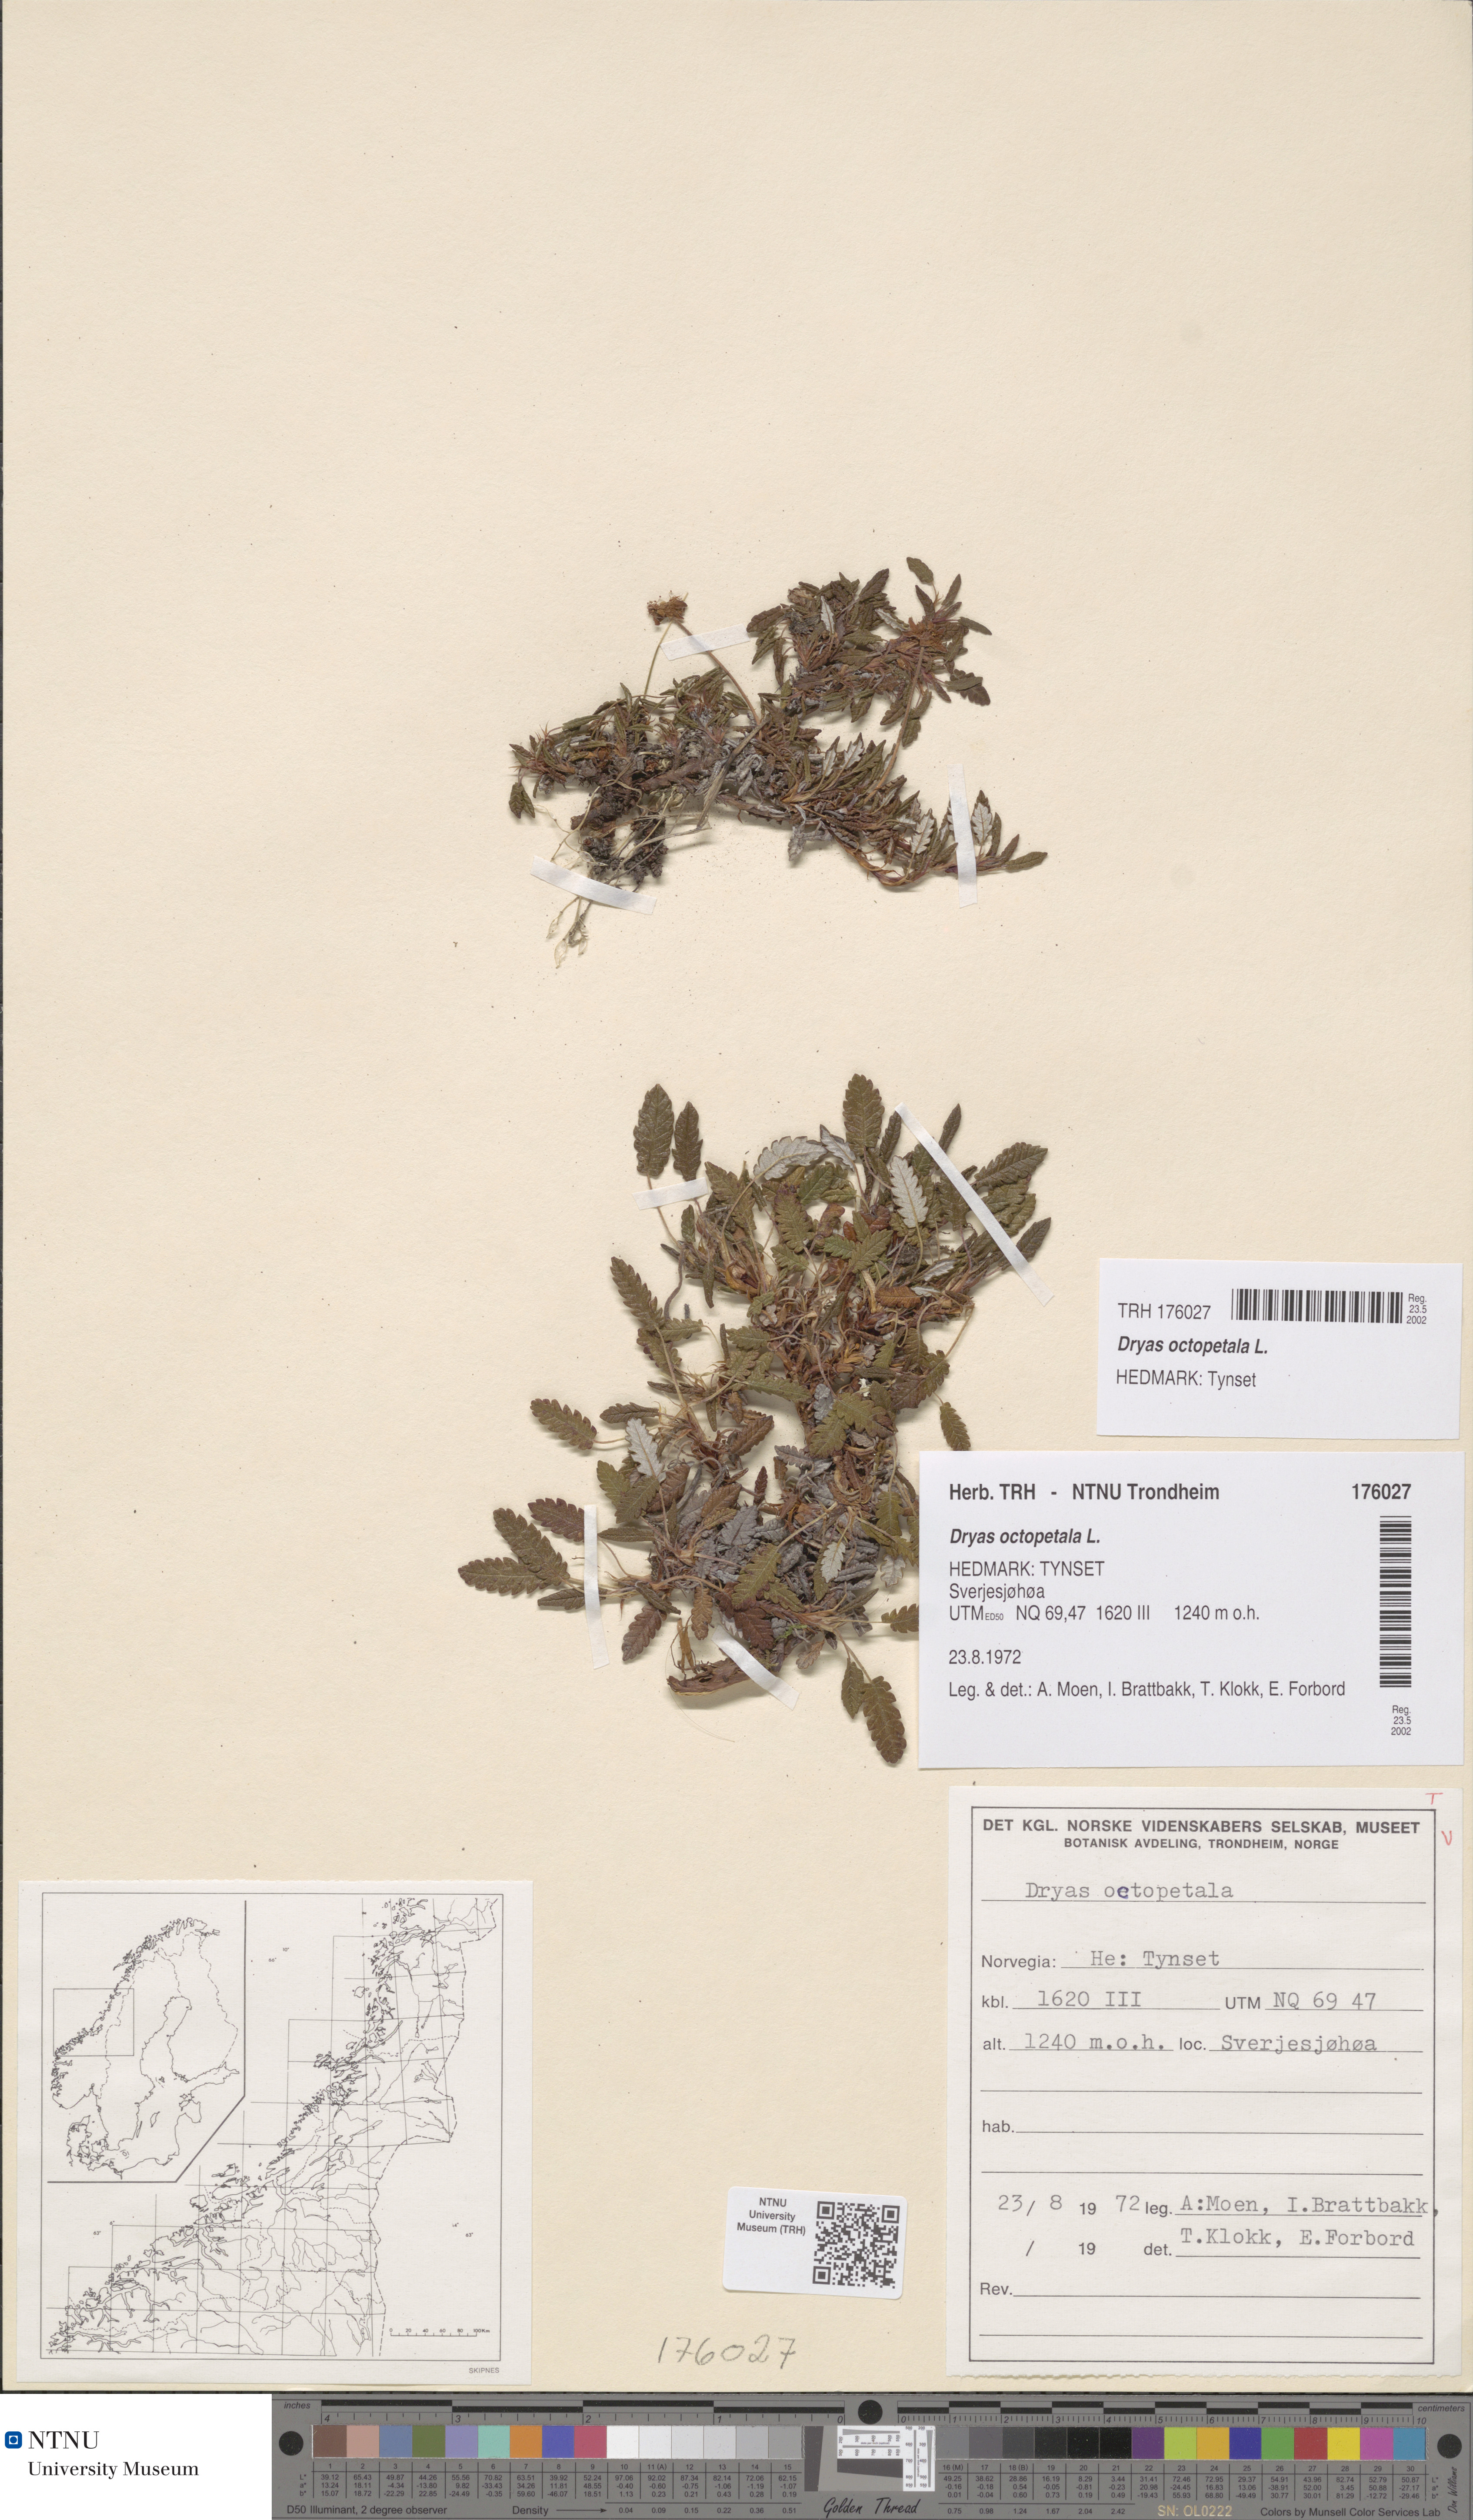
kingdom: Plantae
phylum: Tracheophyta
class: Magnoliopsida
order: Rosales
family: Rosaceae
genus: Dryas
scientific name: Dryas octopetala
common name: Eight-petal mountain-avens
